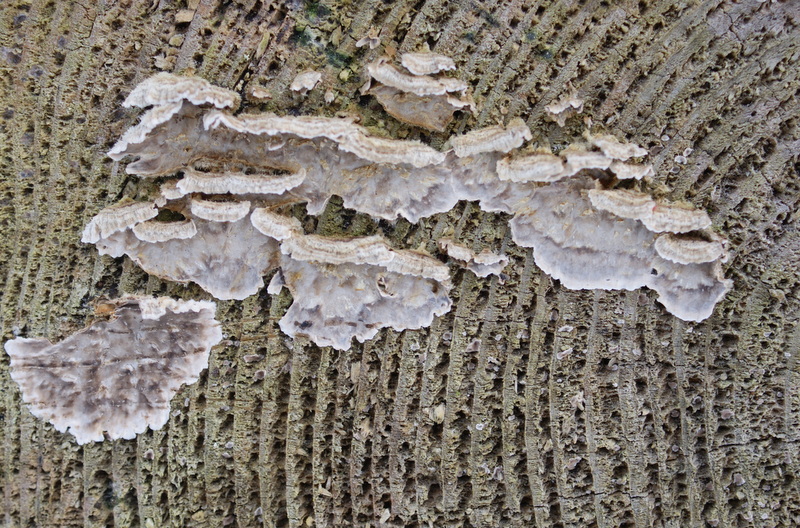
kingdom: Fungi
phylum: Basidiomycota
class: Agaricomycetes
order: Russulales
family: Stereaceae
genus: Stereum
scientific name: Stereum gausapatum
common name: tynd lædersvamp
